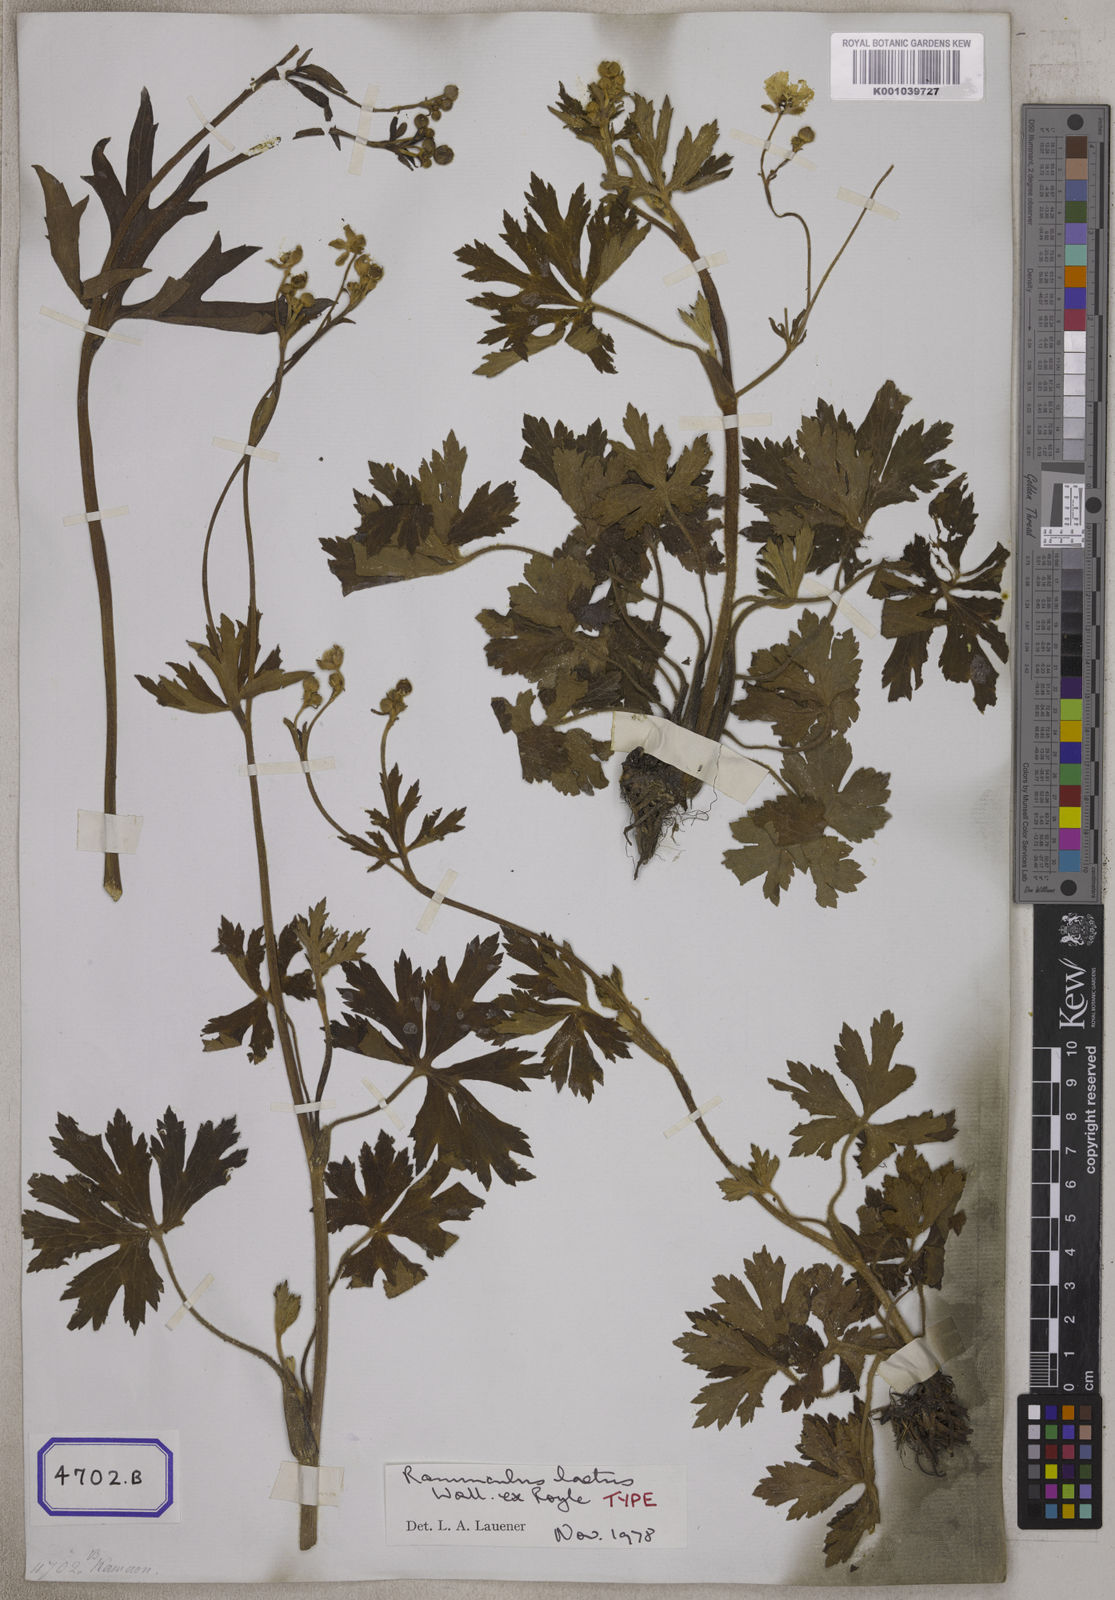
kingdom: Plantae
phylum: Tracheophyta
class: Magnoliopsida
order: Ranunculales
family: Ranunculaceae
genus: Ranunculus
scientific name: Ranunculus
